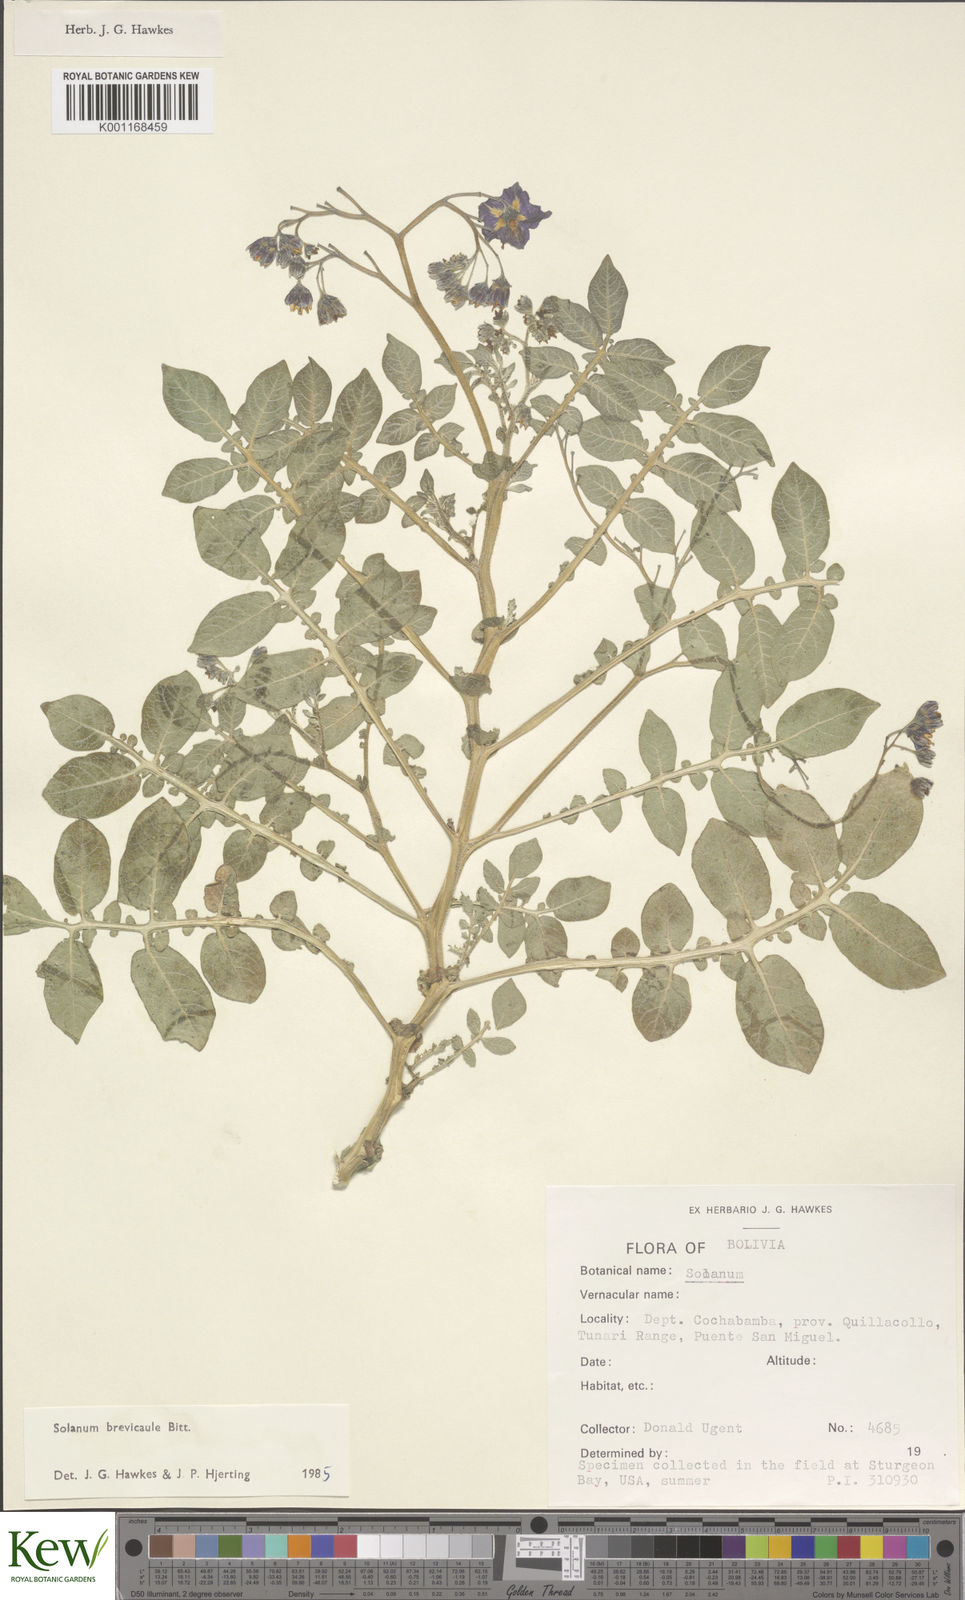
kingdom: Plantae
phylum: Tracheophyta
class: Magnoliopsida
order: Solanales
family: Solanaceae
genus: Solanum
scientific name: Solanum brevicaule
